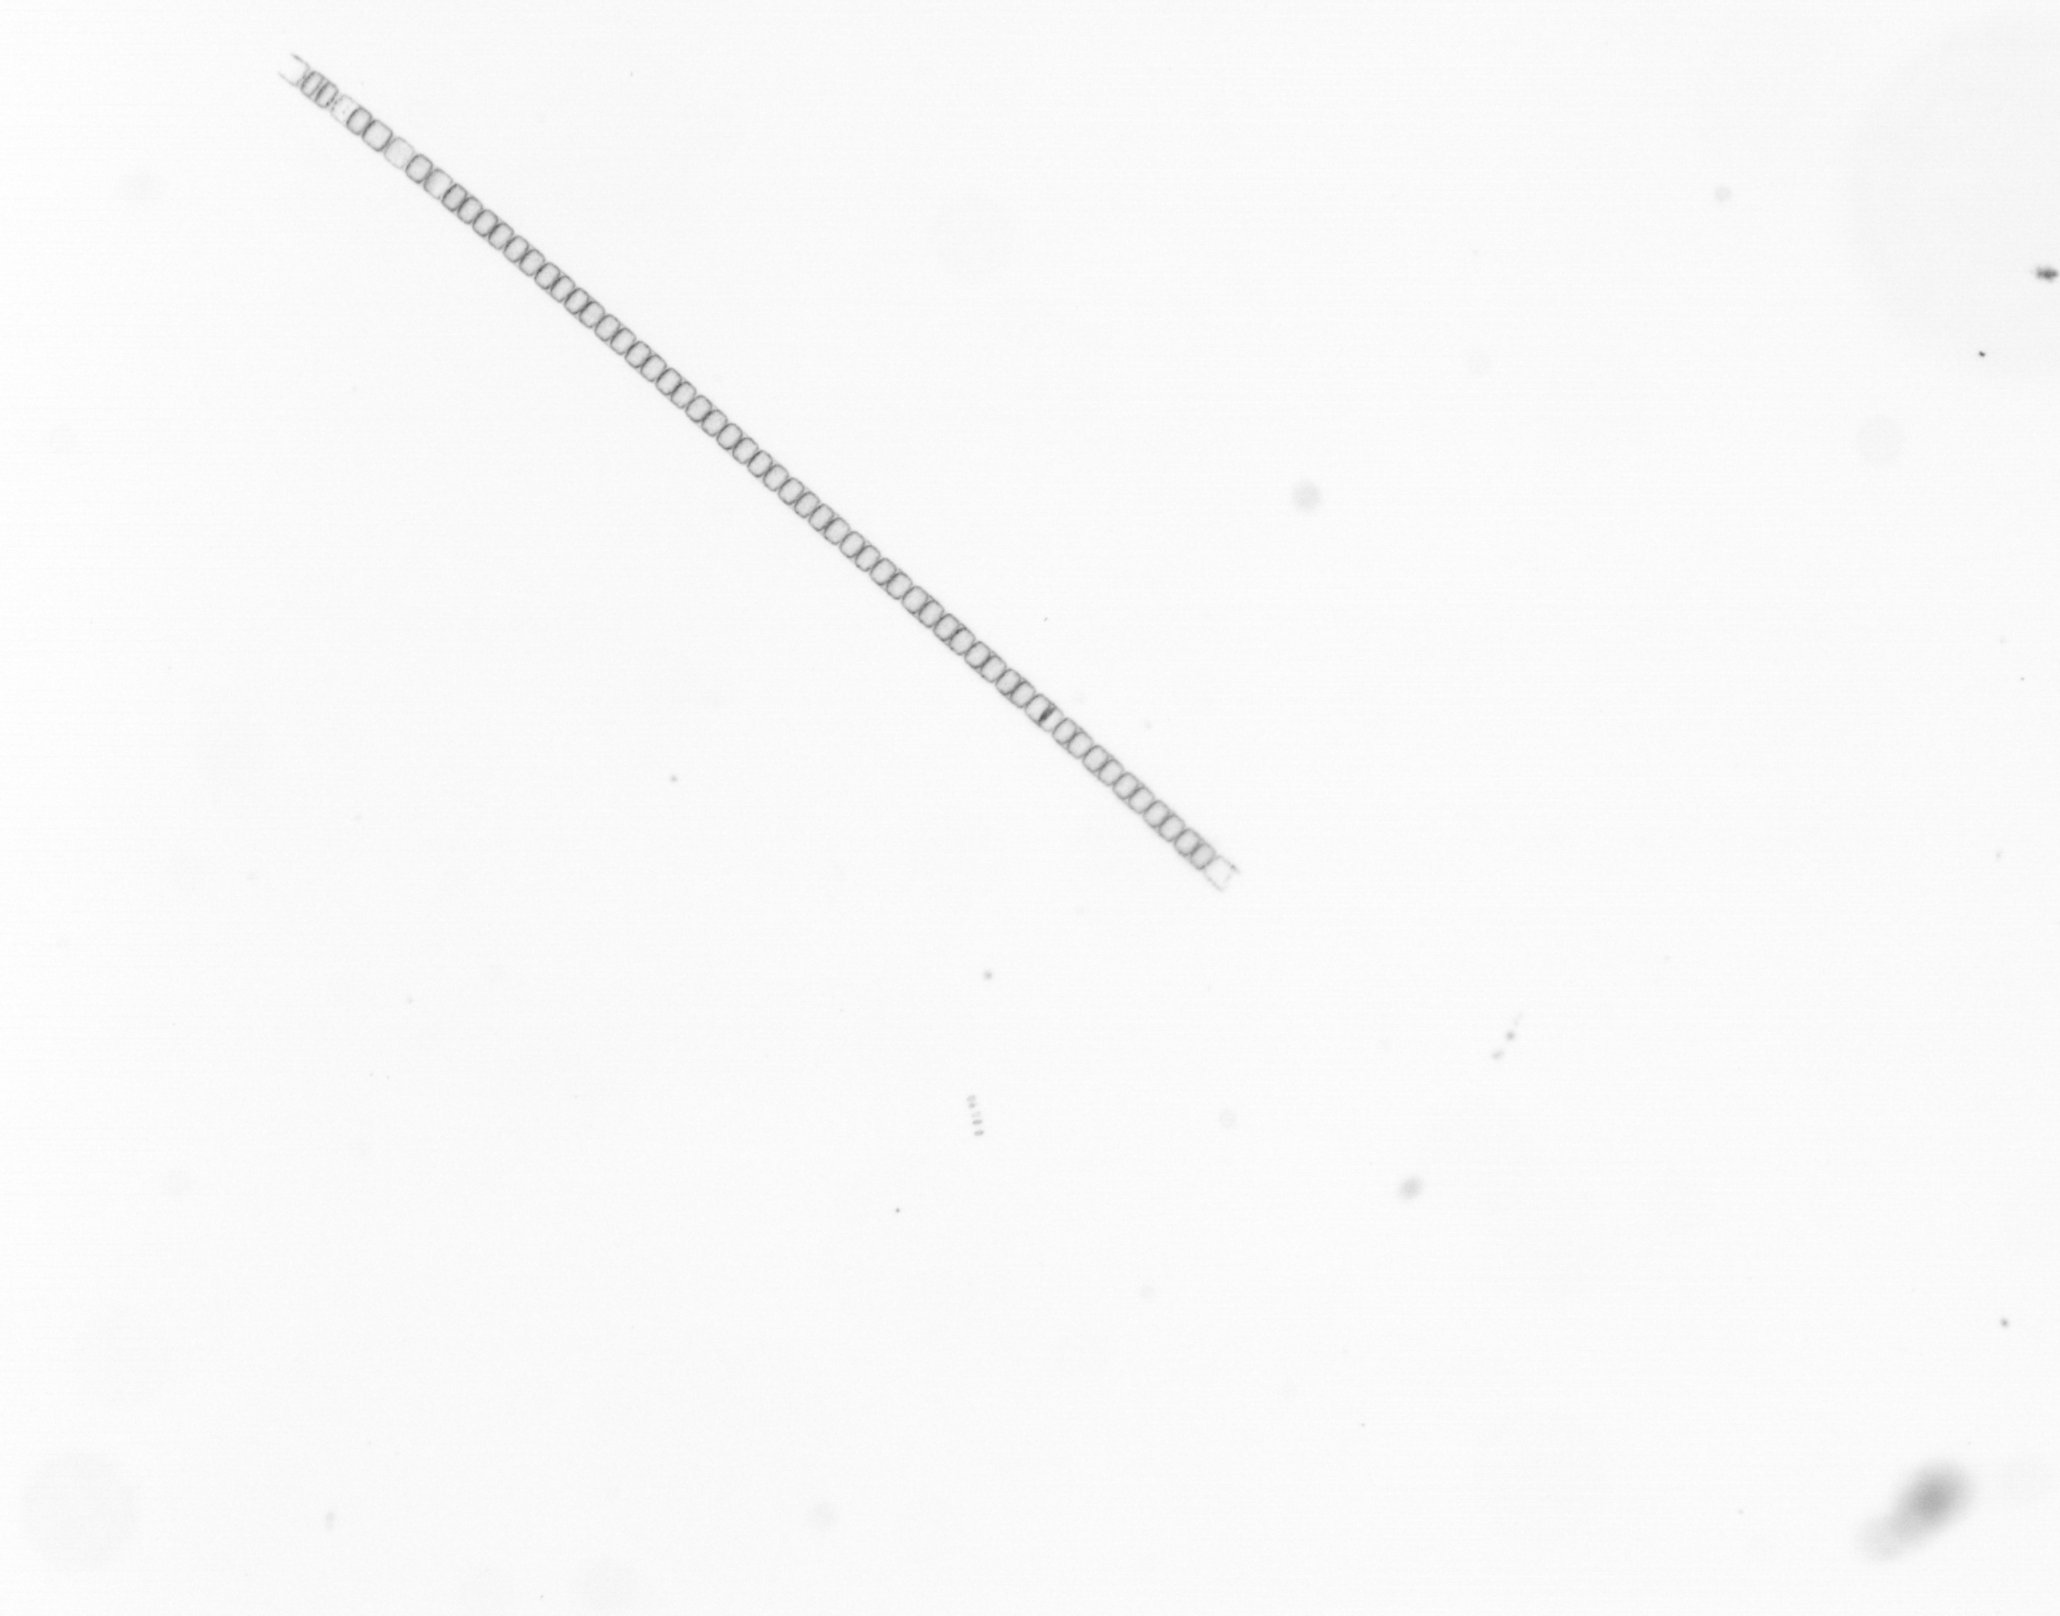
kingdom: Chromista
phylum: Ochrophyta
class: Bacillariophyceae
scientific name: Bacillariophyceae
